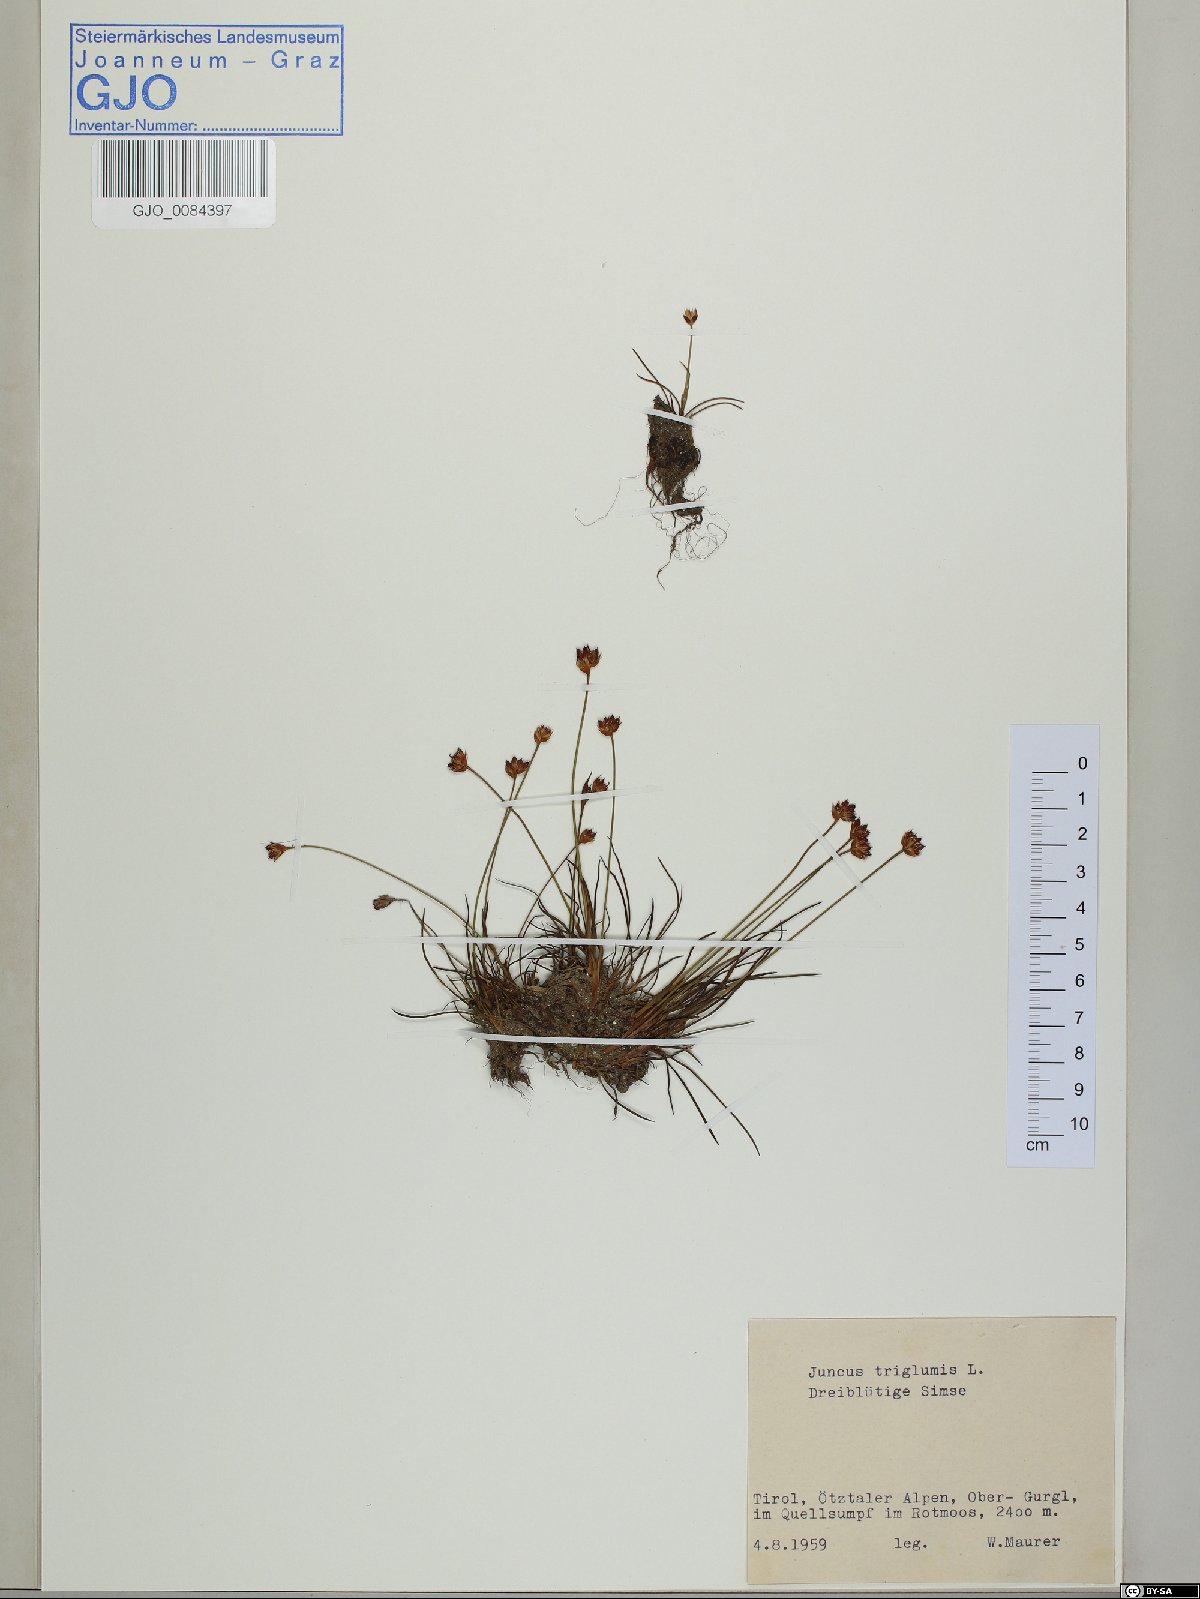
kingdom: Plantae
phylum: Tracheophyta
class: Liliopsida
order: Poales
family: Juncaceae
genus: Juncus
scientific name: Juncus triglumis
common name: Three-flowered rush
